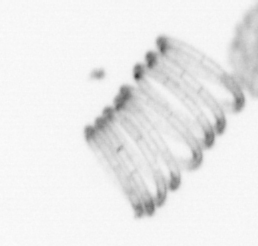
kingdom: Chromista
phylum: Ochrophyta
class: Bacillariophyceae
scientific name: Bacillariophyceae
